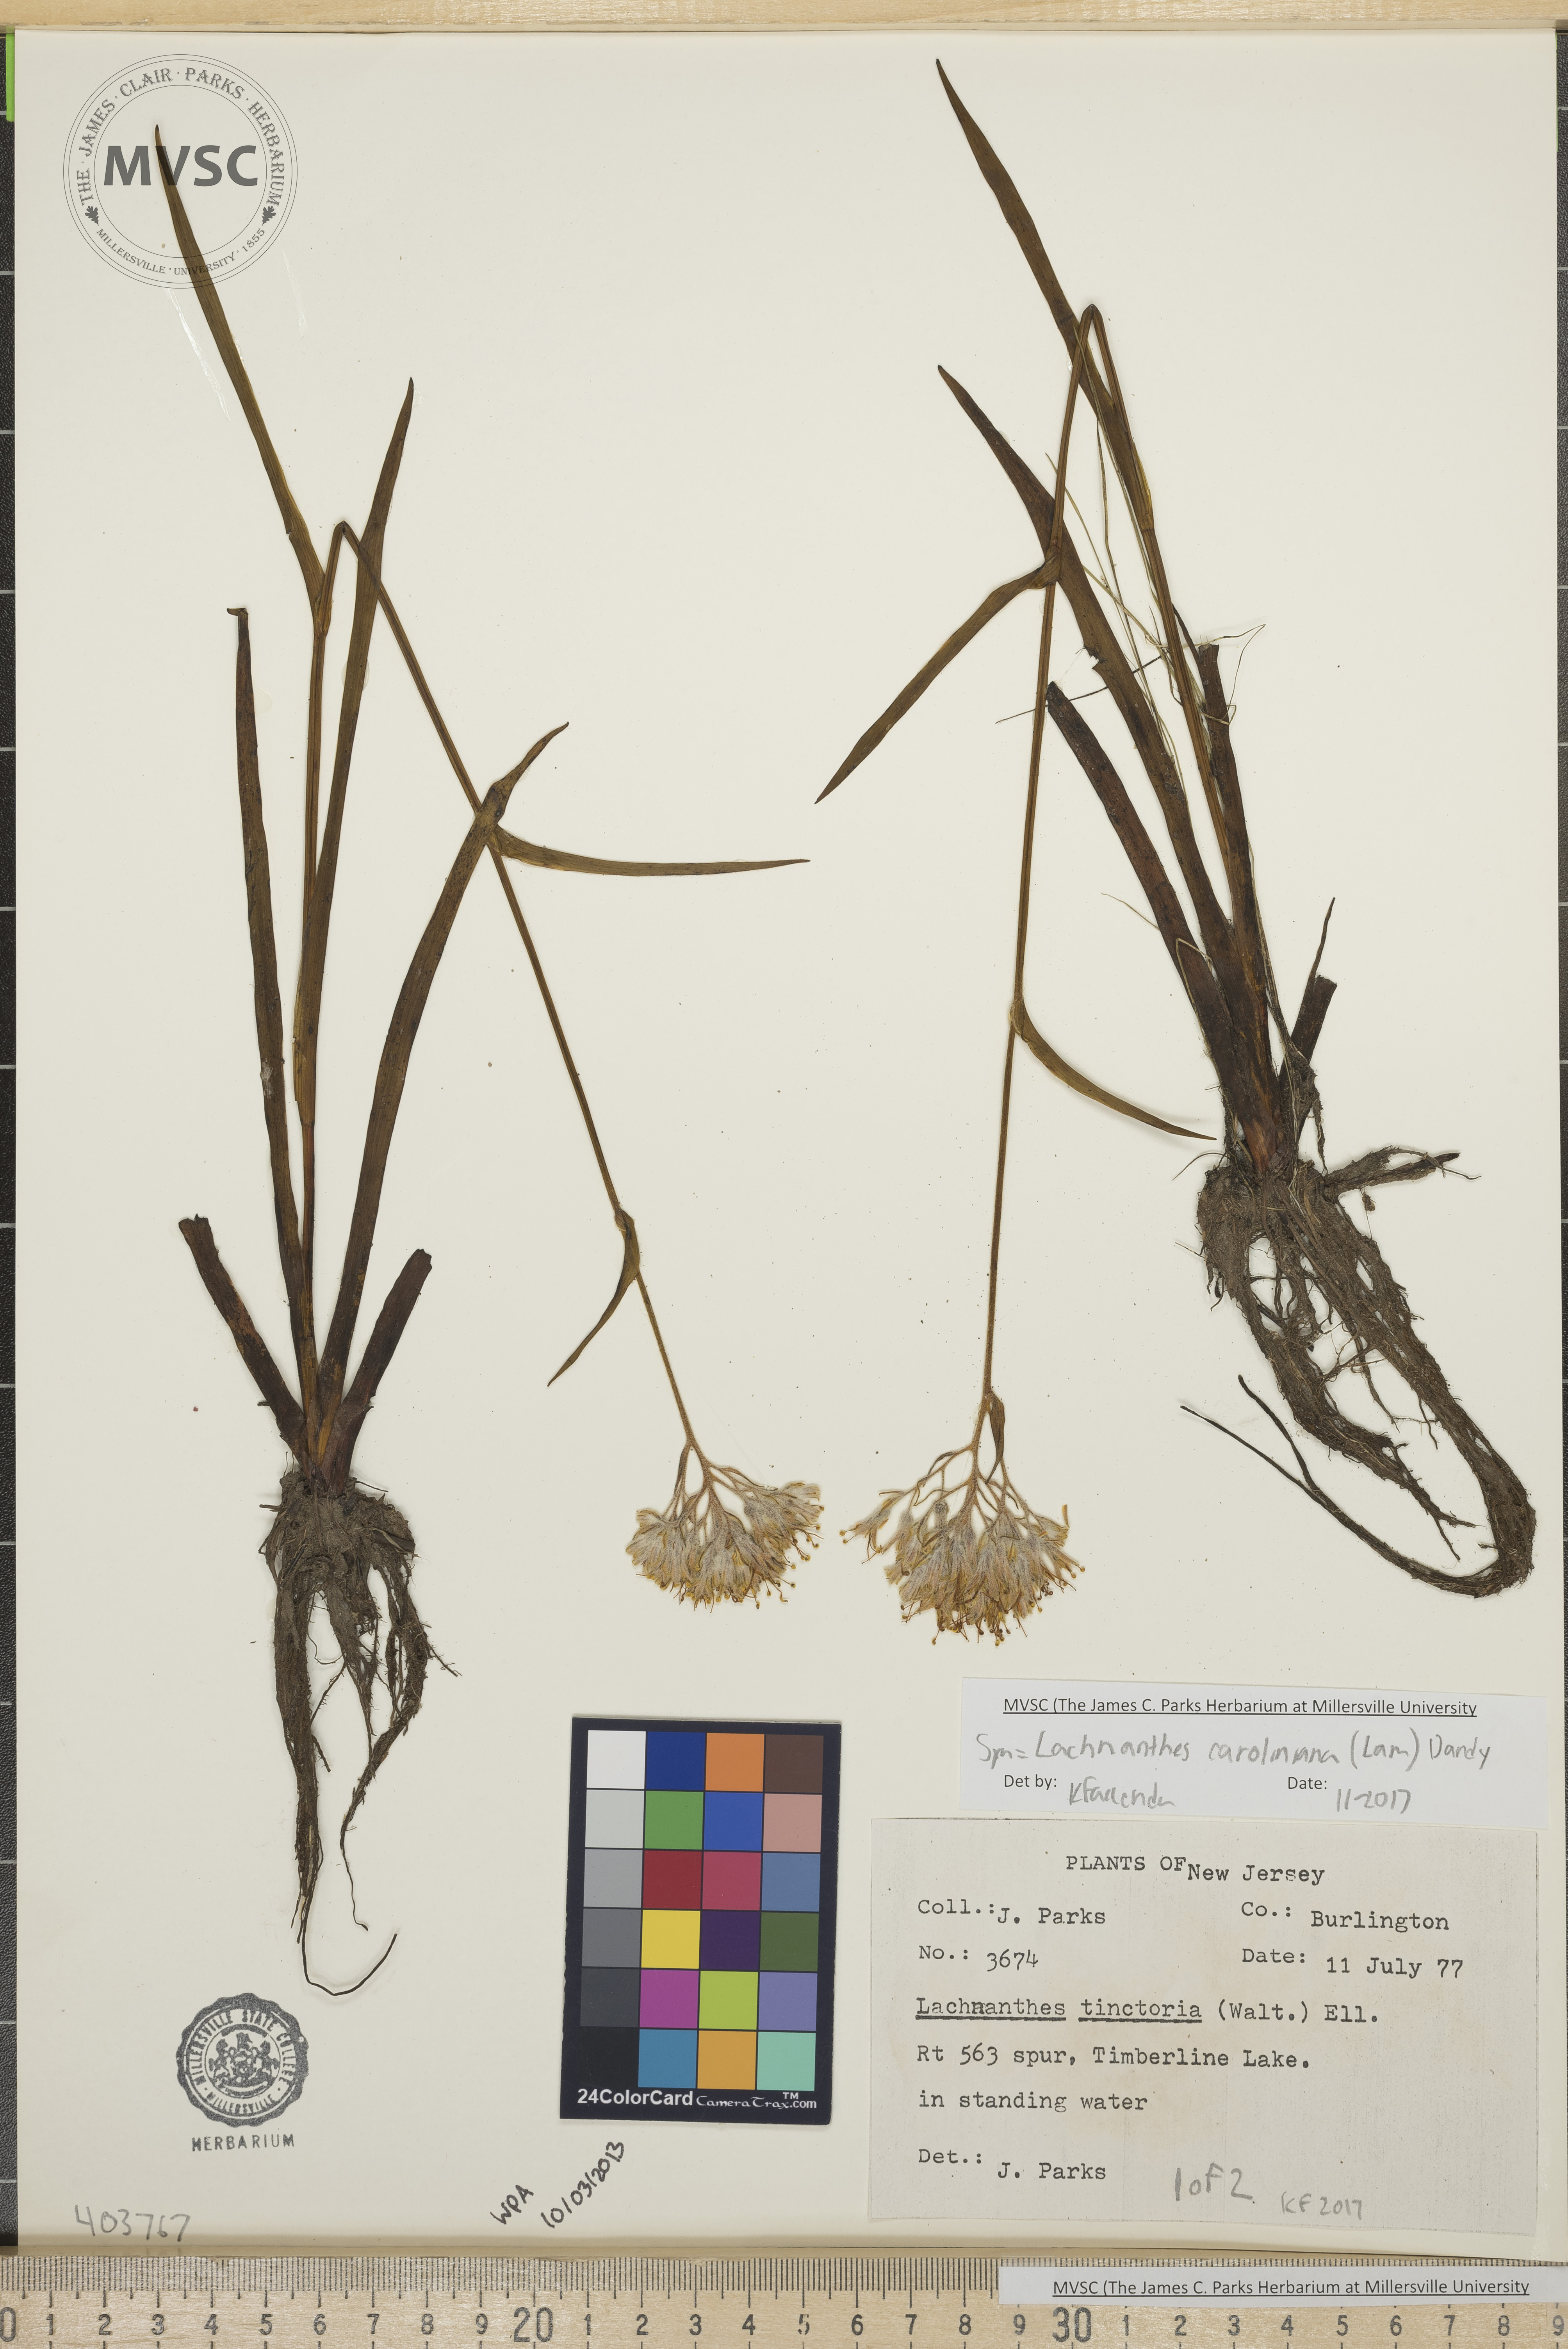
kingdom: Plantae
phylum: Tracheophyta
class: Liliopsida
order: Commelinales
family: Haemodoraceae
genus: Lachnanthes
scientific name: Lachnanthes caroliniana
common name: Carolina redroot
